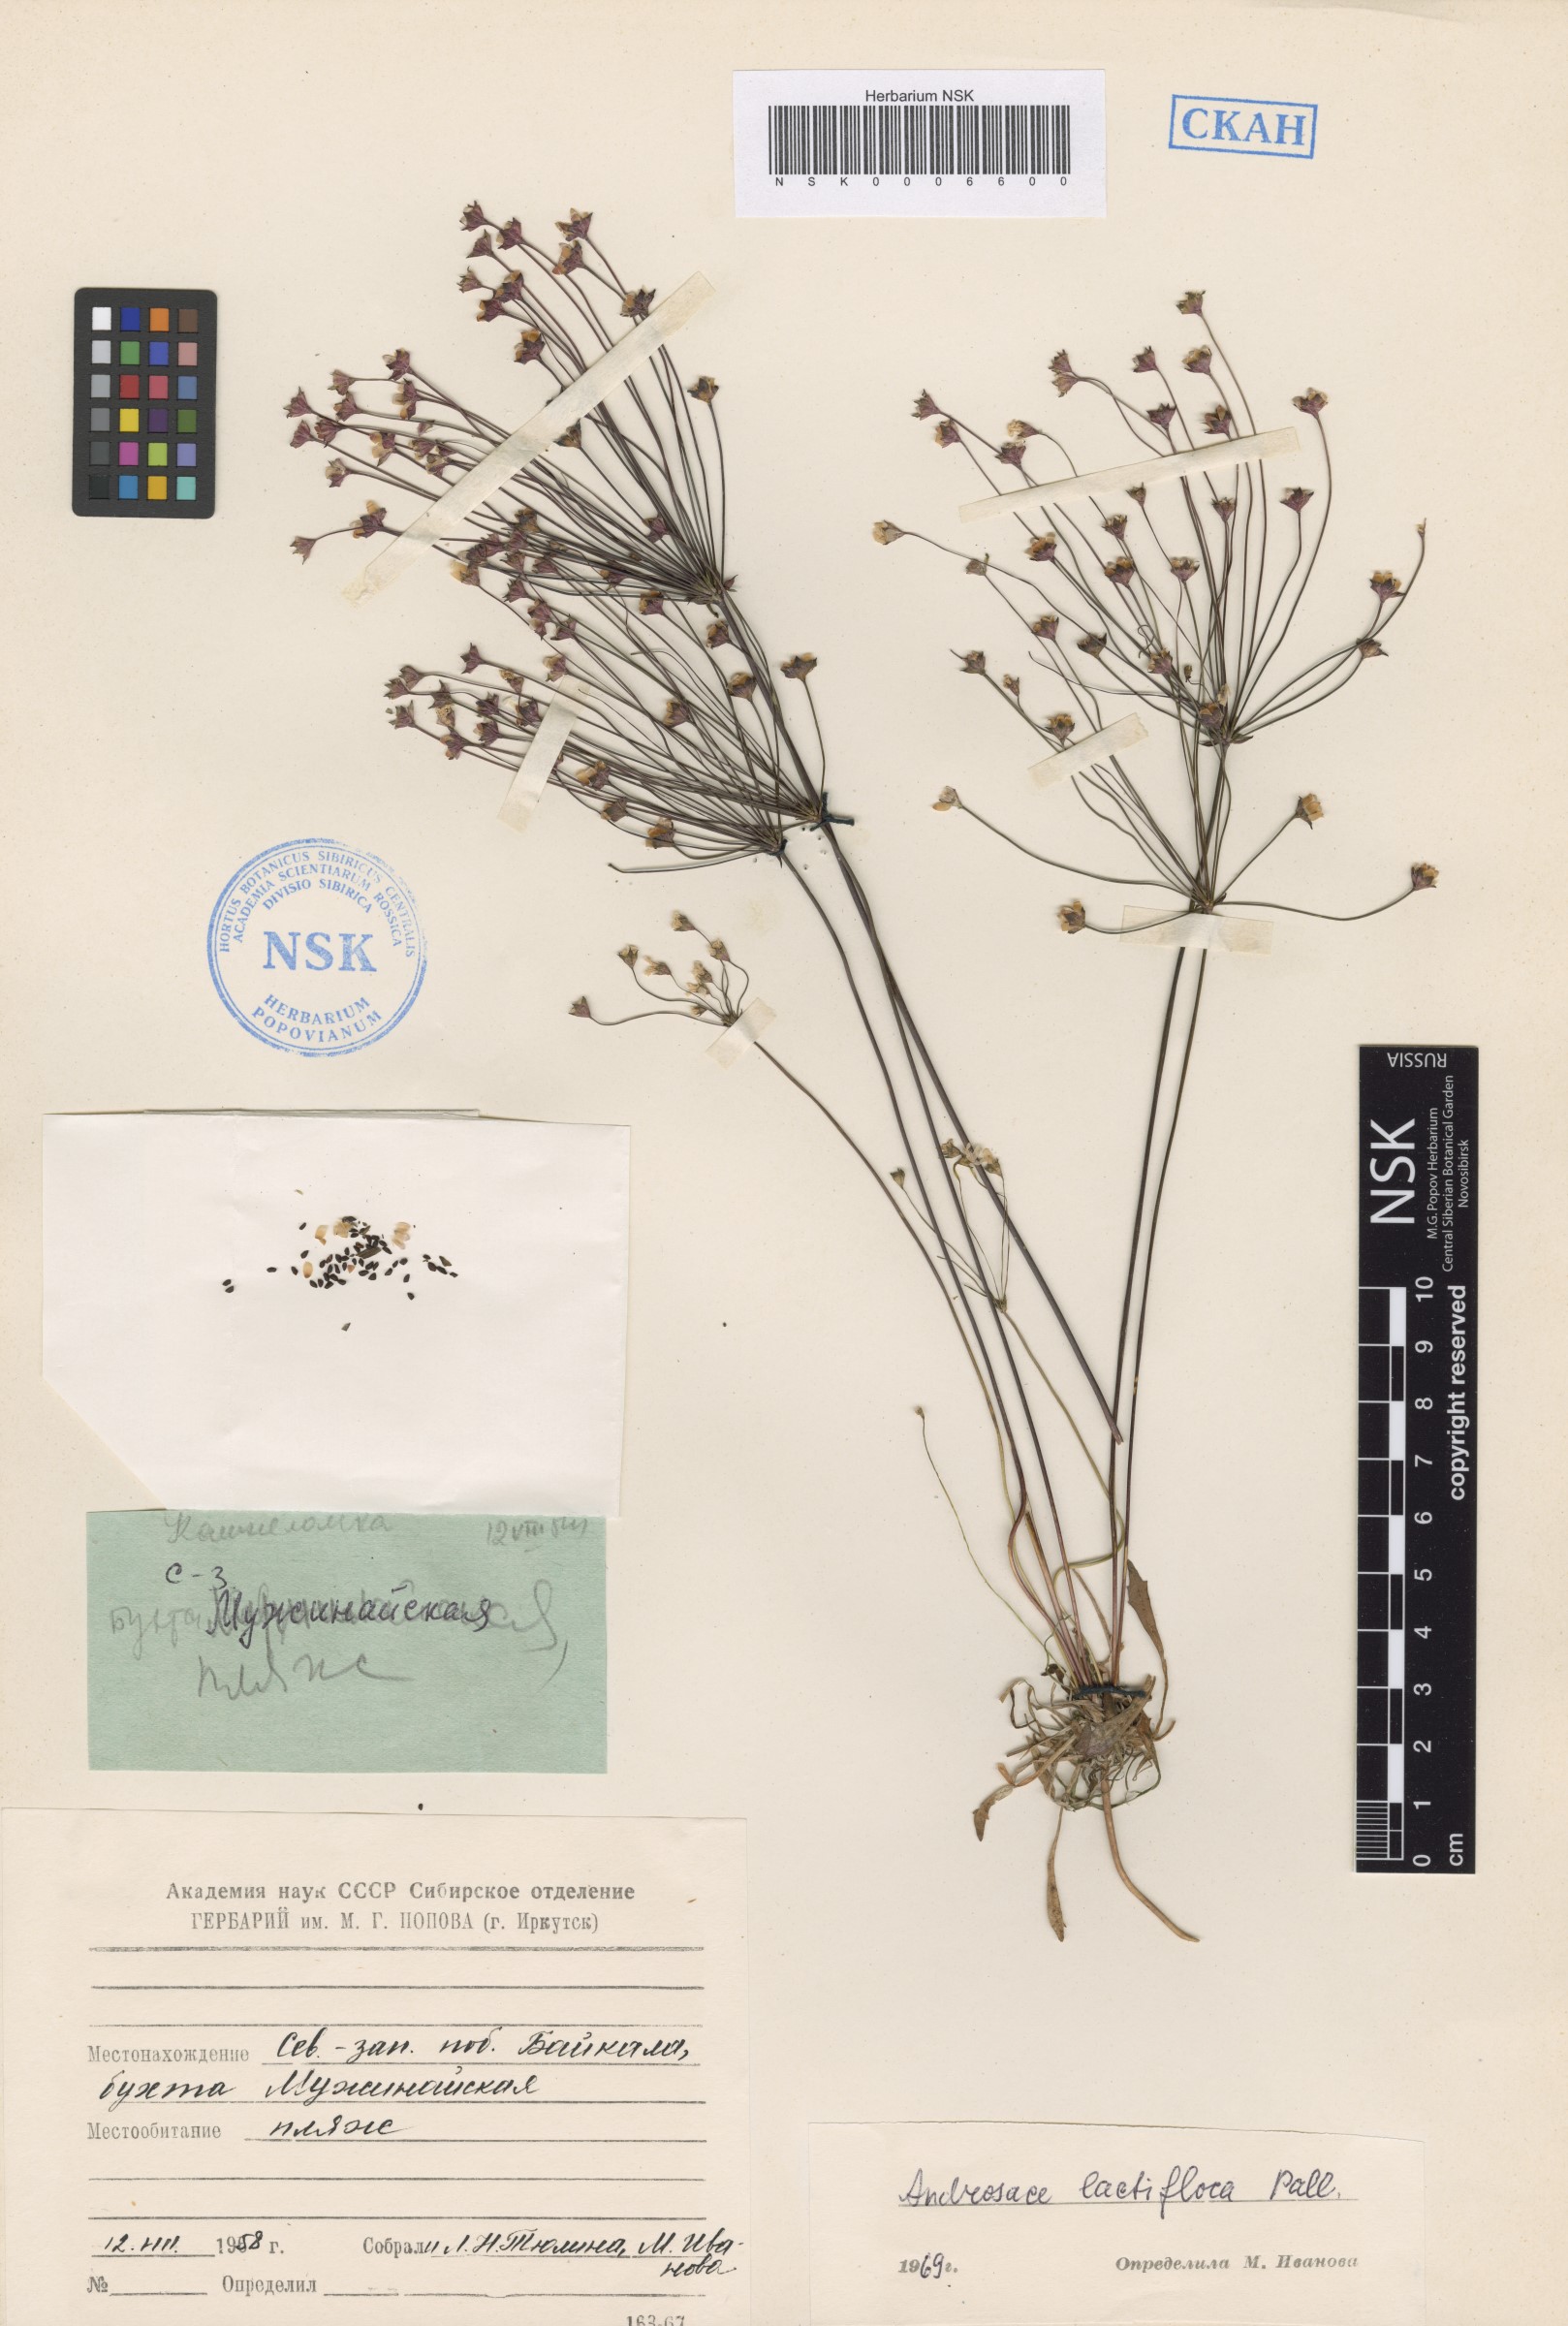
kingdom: Plantae
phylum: Tracheophyta
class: Magnoliopsida
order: Ericales
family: Primulaceae
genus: Androsace
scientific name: Androsace lactiflora
